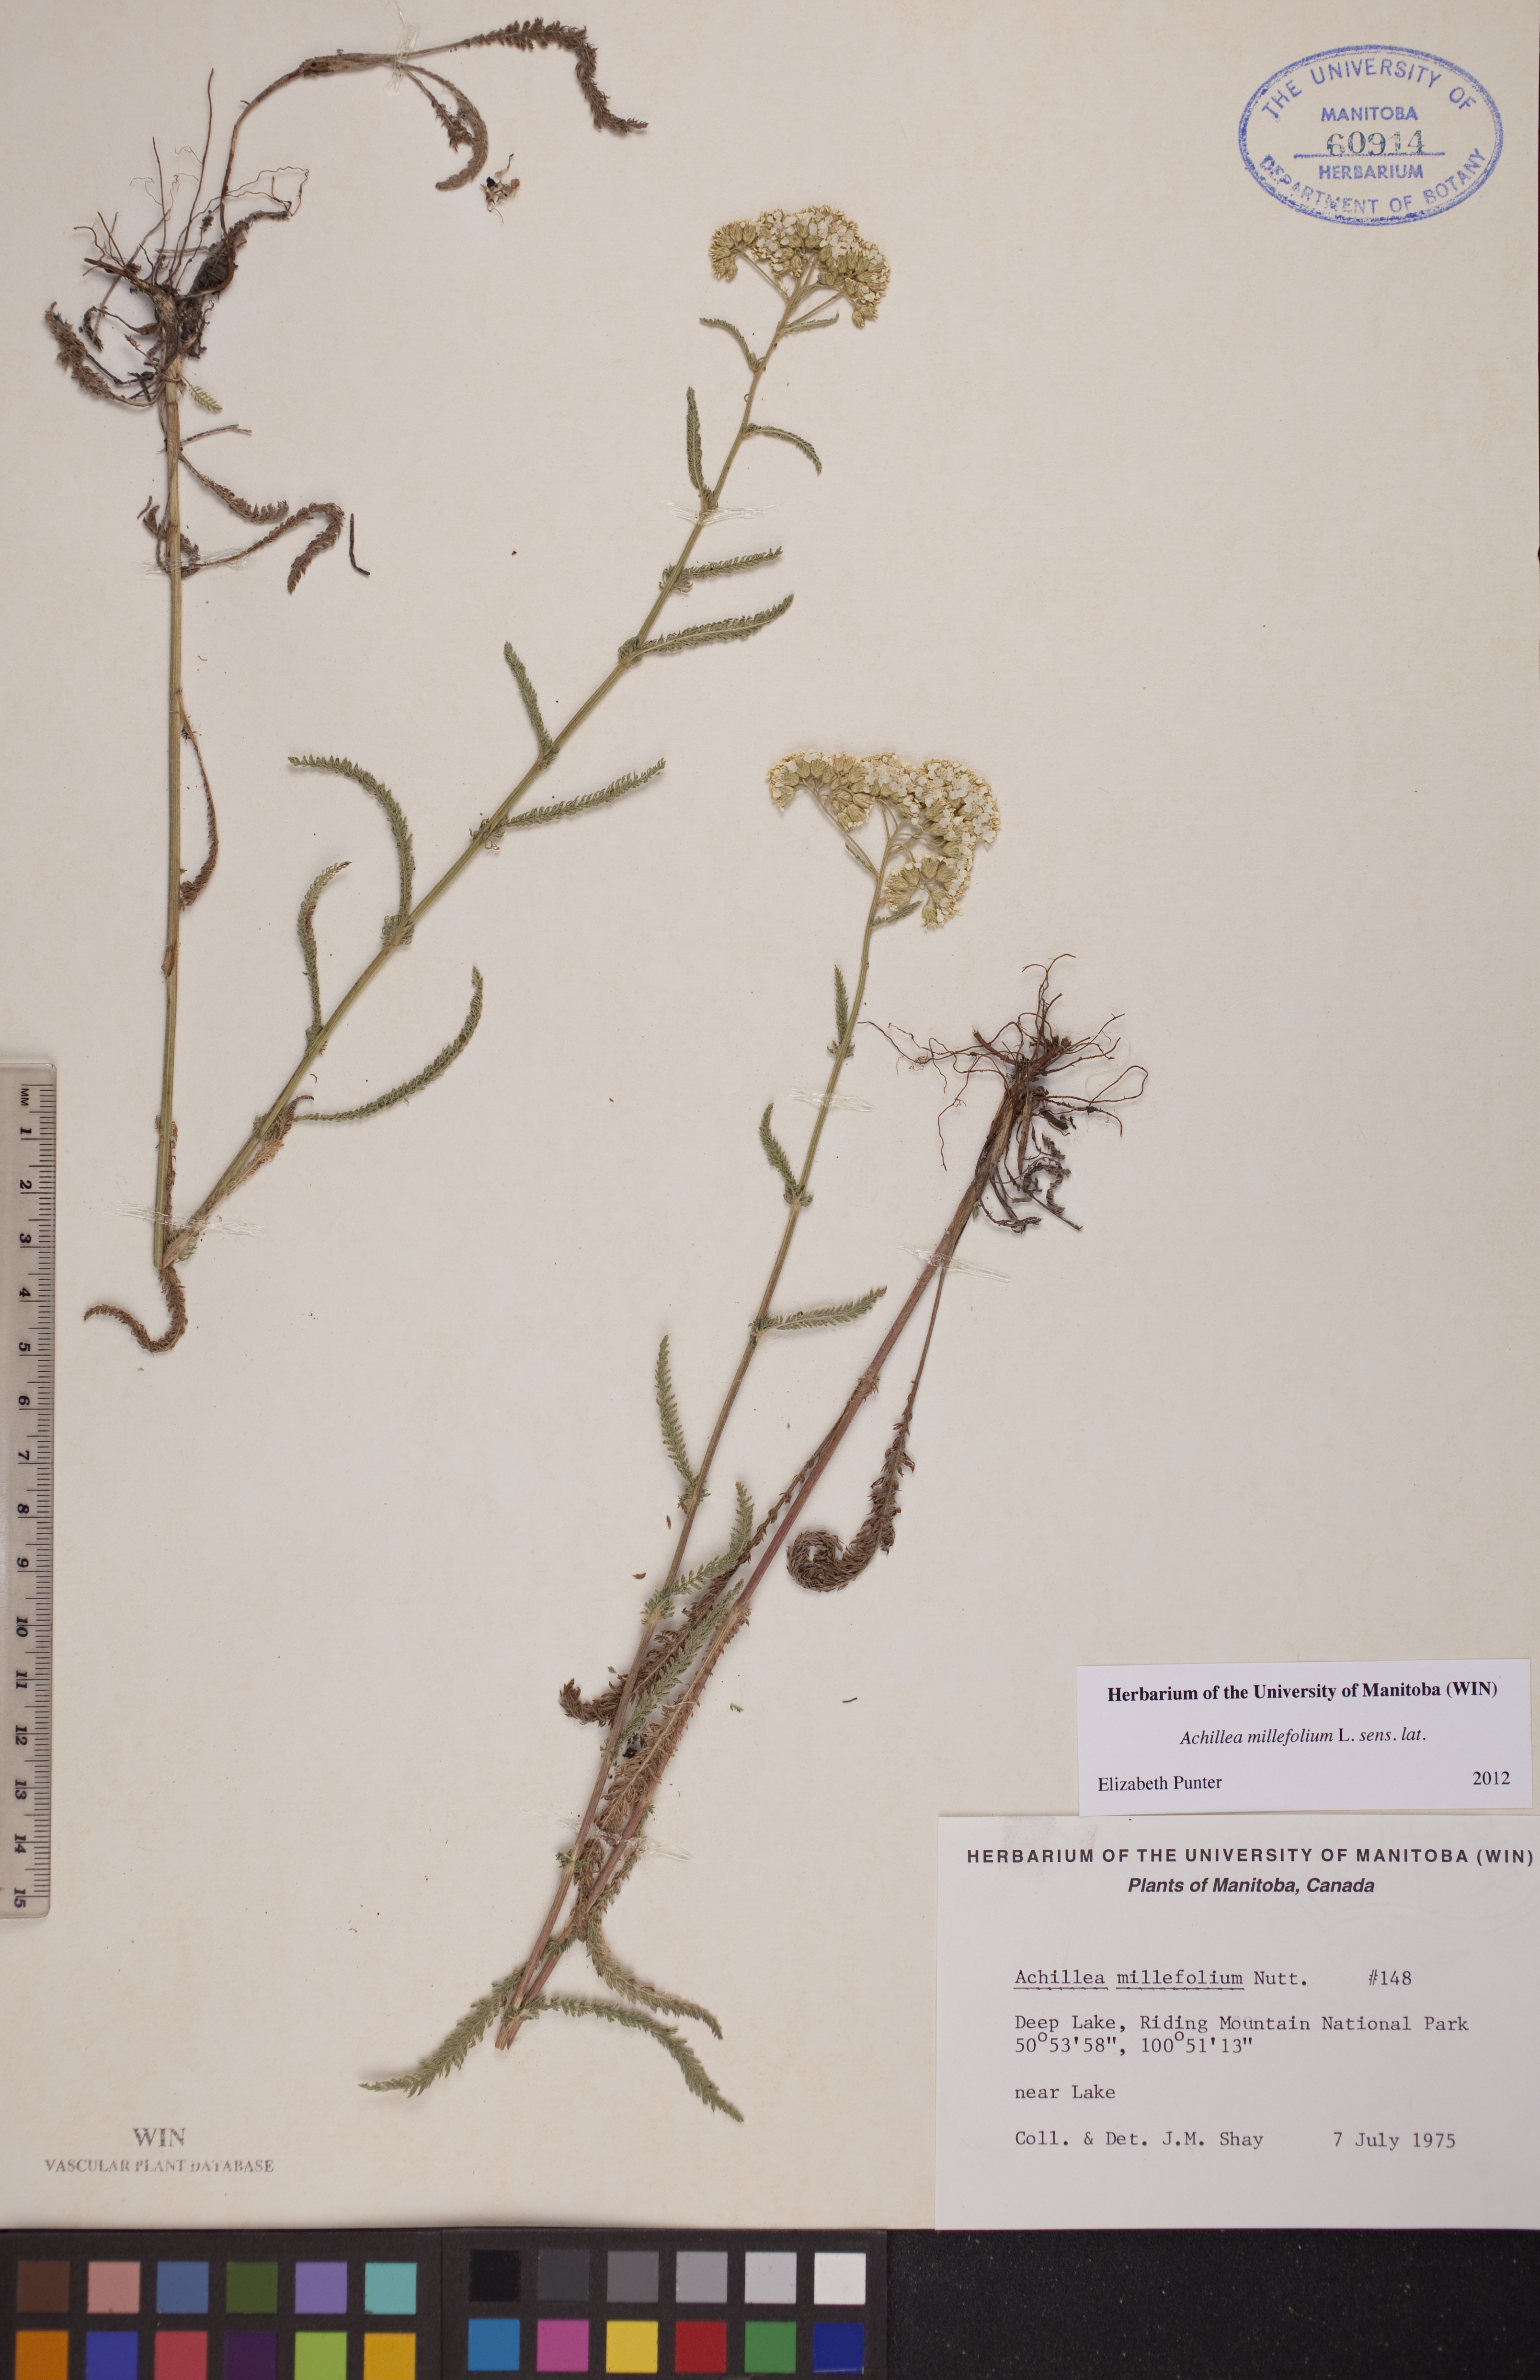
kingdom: Plantae
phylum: Tracheophyta
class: Magnoliopsida
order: Asterales
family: Asteraceae
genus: Achillea
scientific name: Achillea millefolium
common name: Yarrow
